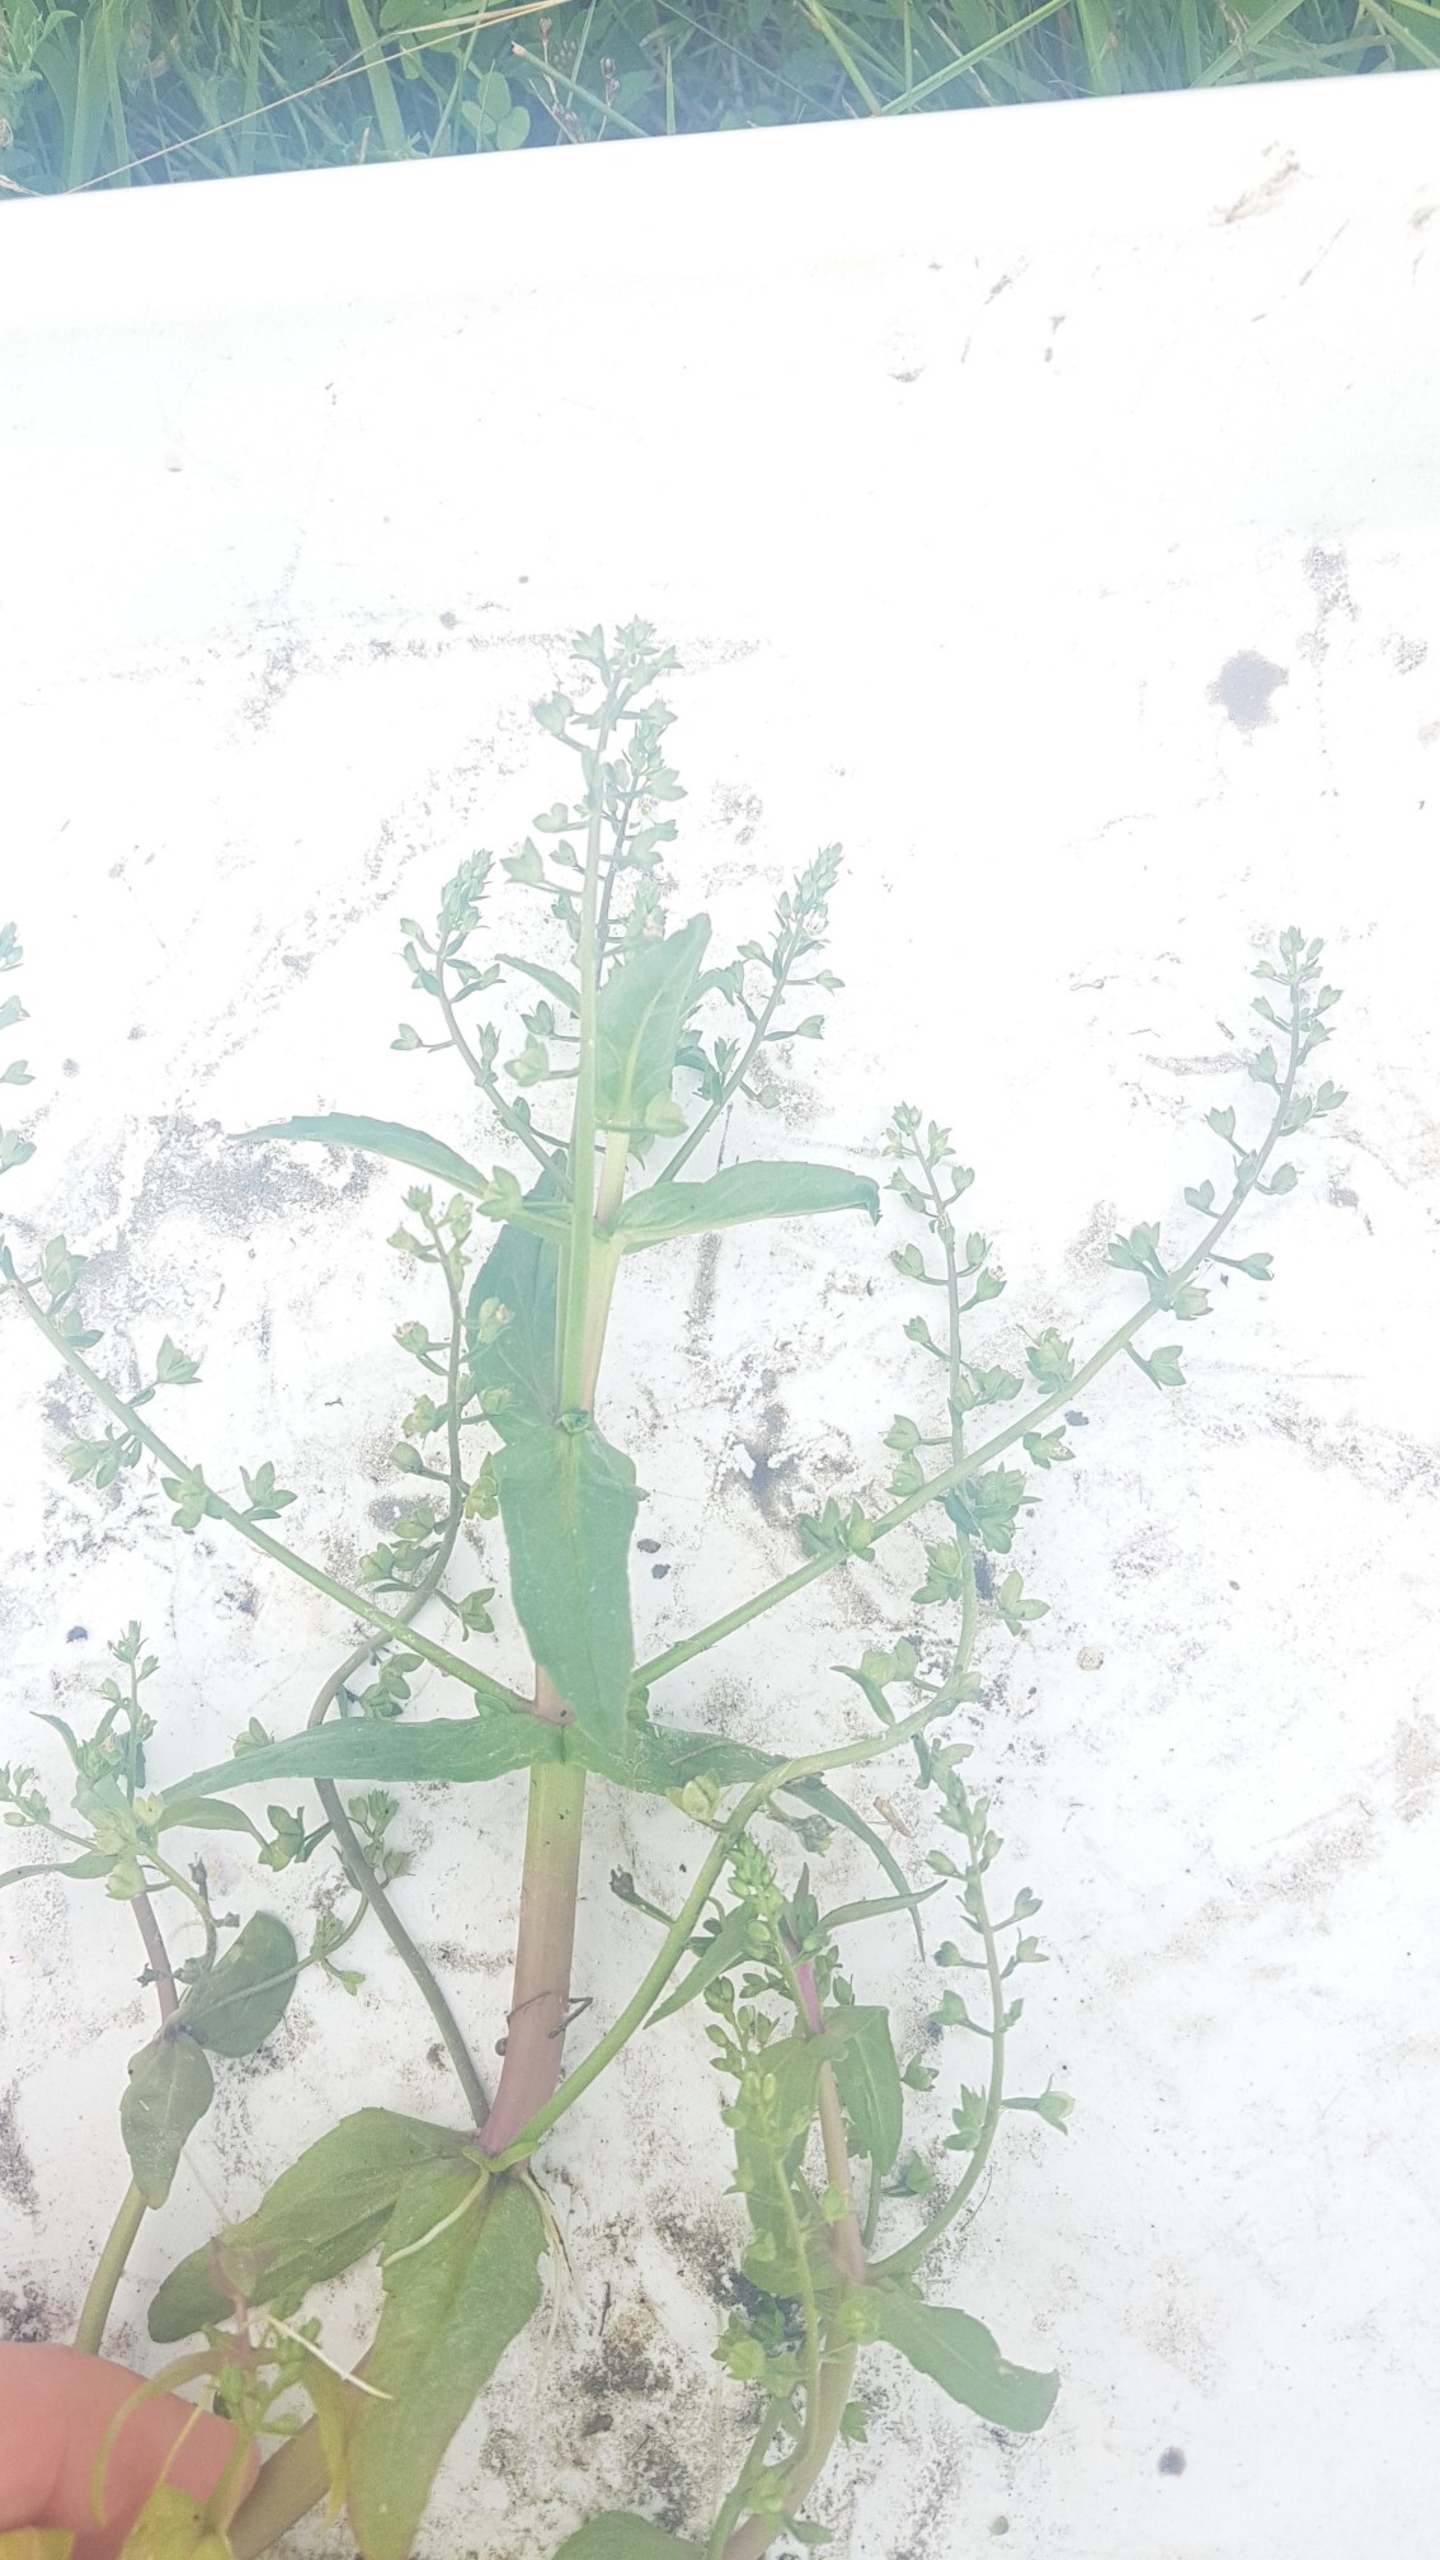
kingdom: Plantae
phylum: Tracheophyta
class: Magnoliopsida
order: Lamiales
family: Plantaginaceae
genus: Veronica
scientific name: Veronica catenata
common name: Vand-ærenpris
